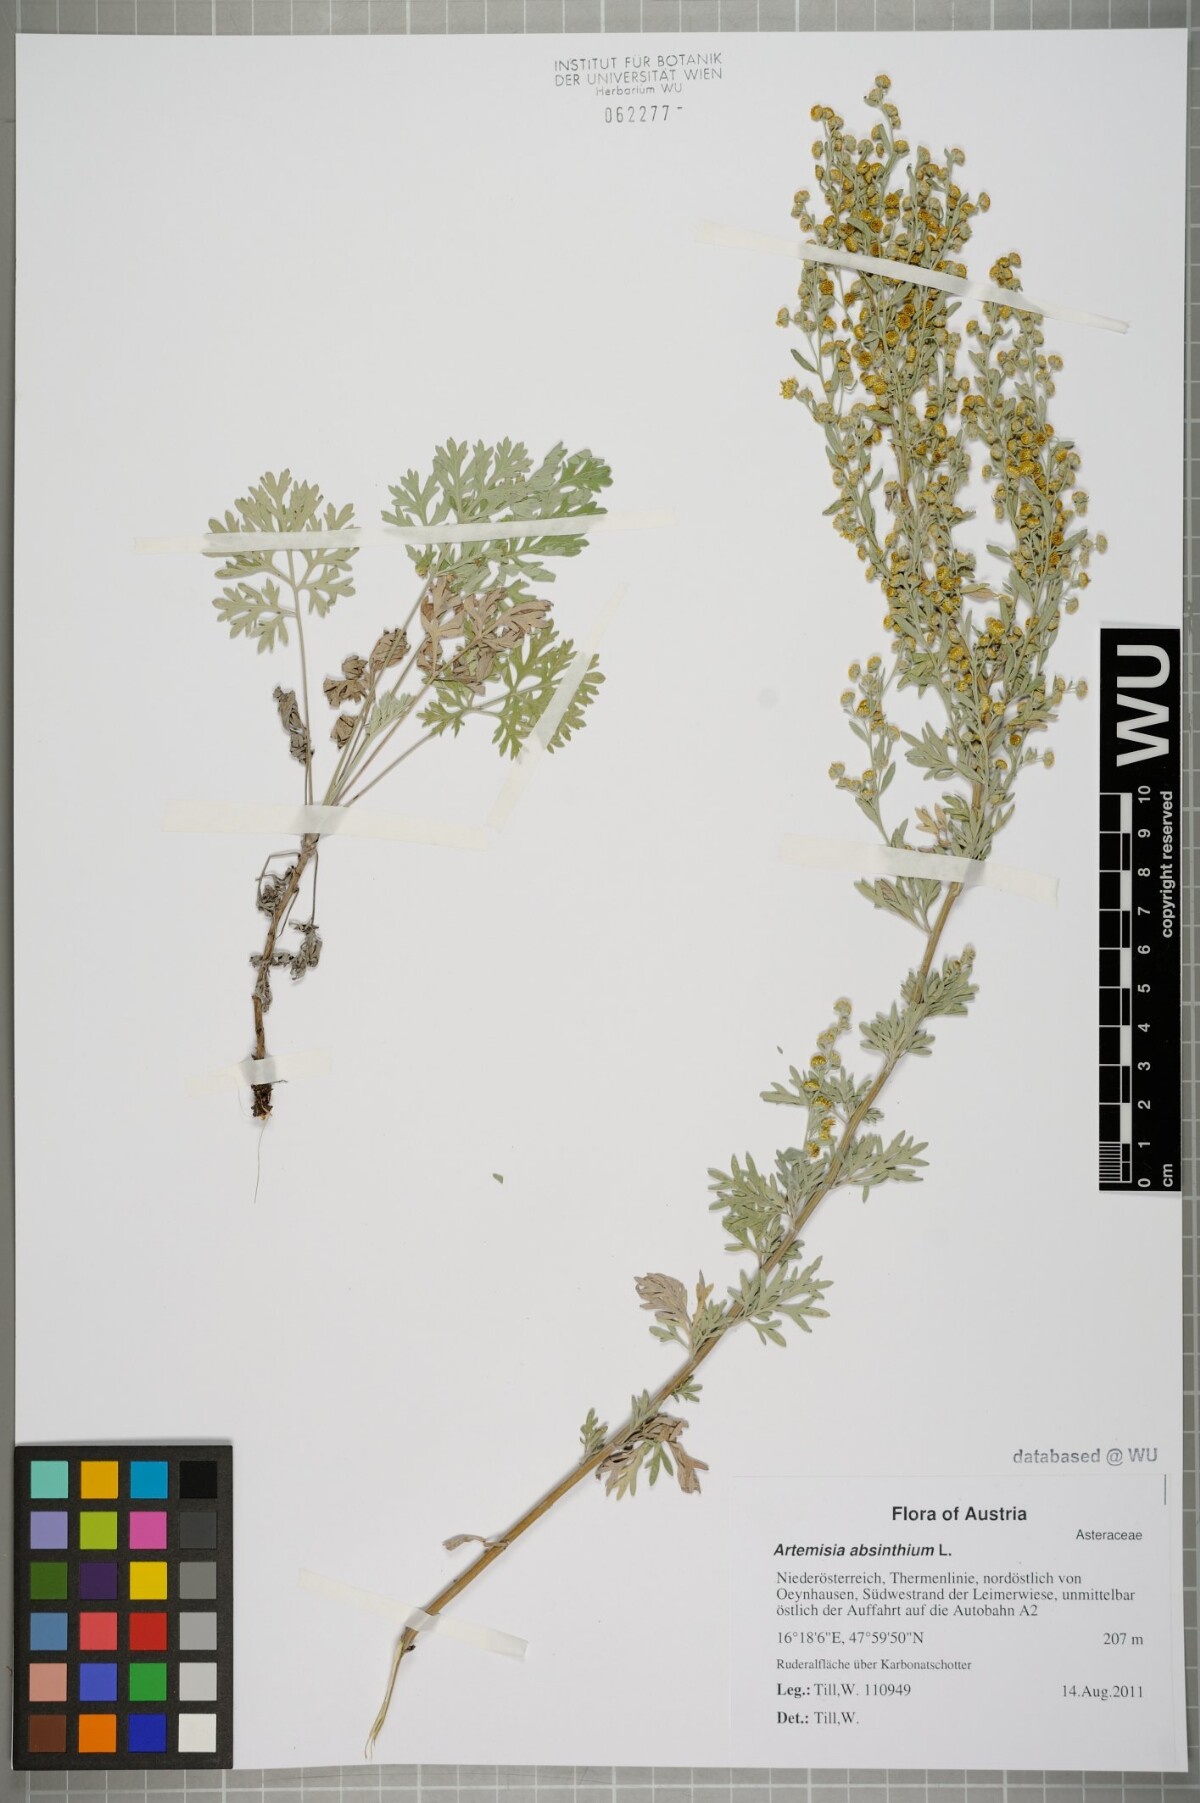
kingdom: Plantae
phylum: Tracheophyta
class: Magnoliopsida
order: Asterales
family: Asteraceae
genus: Artemisia
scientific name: Artemisia absinthium
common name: Wormwood
